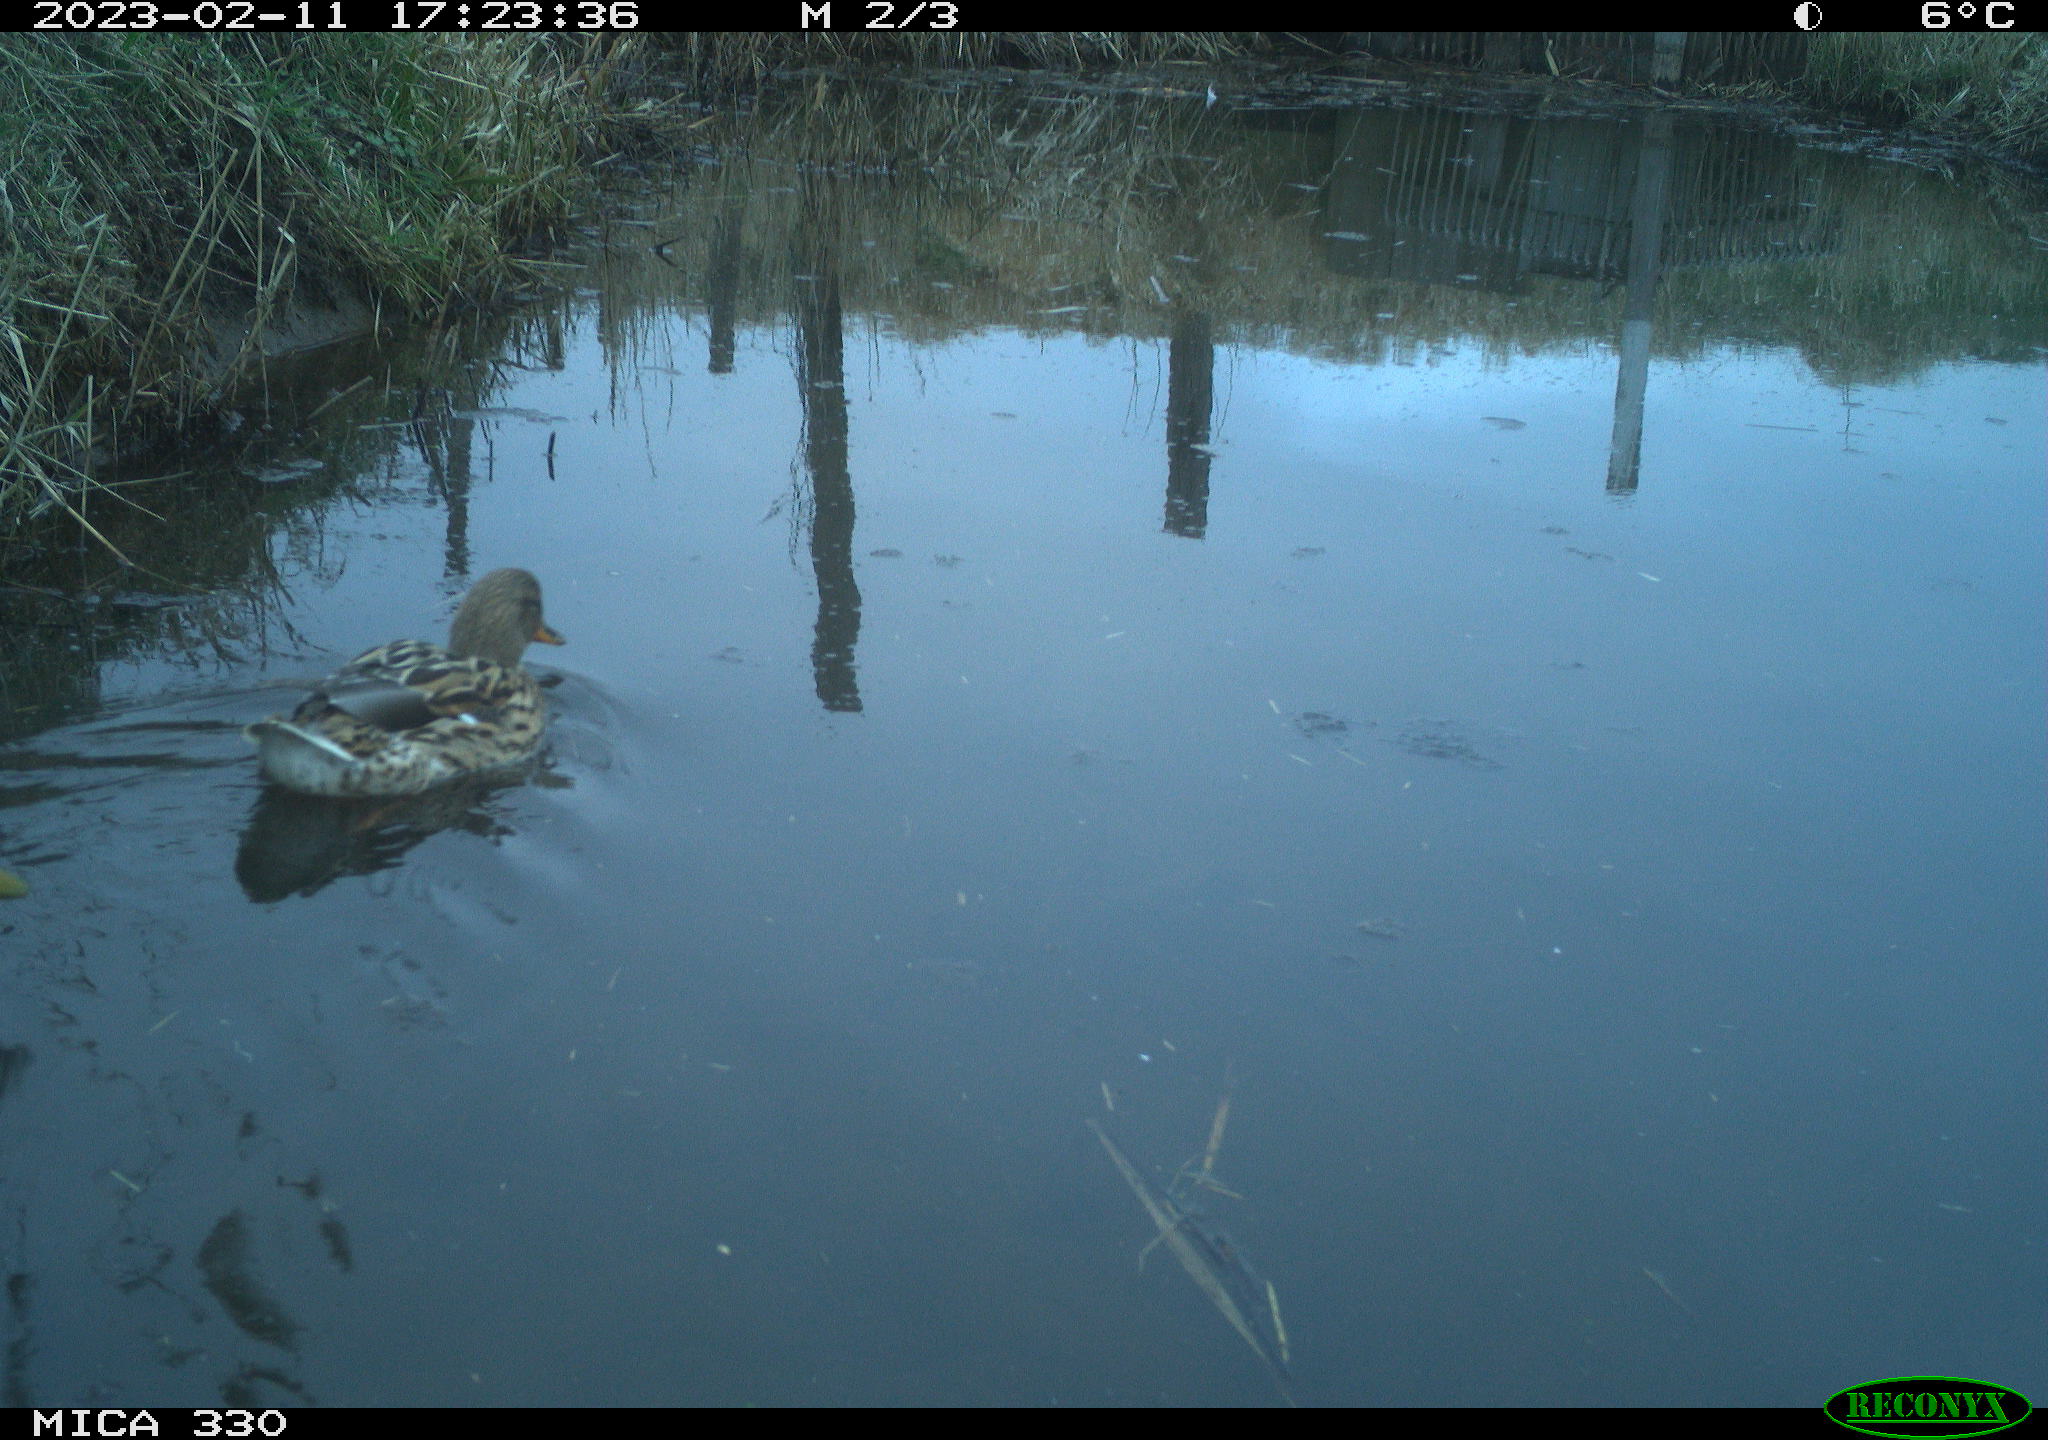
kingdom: Animalia
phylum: Chordata
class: Aves
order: Anseriformes
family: Anatidae
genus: Anas
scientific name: Anas
